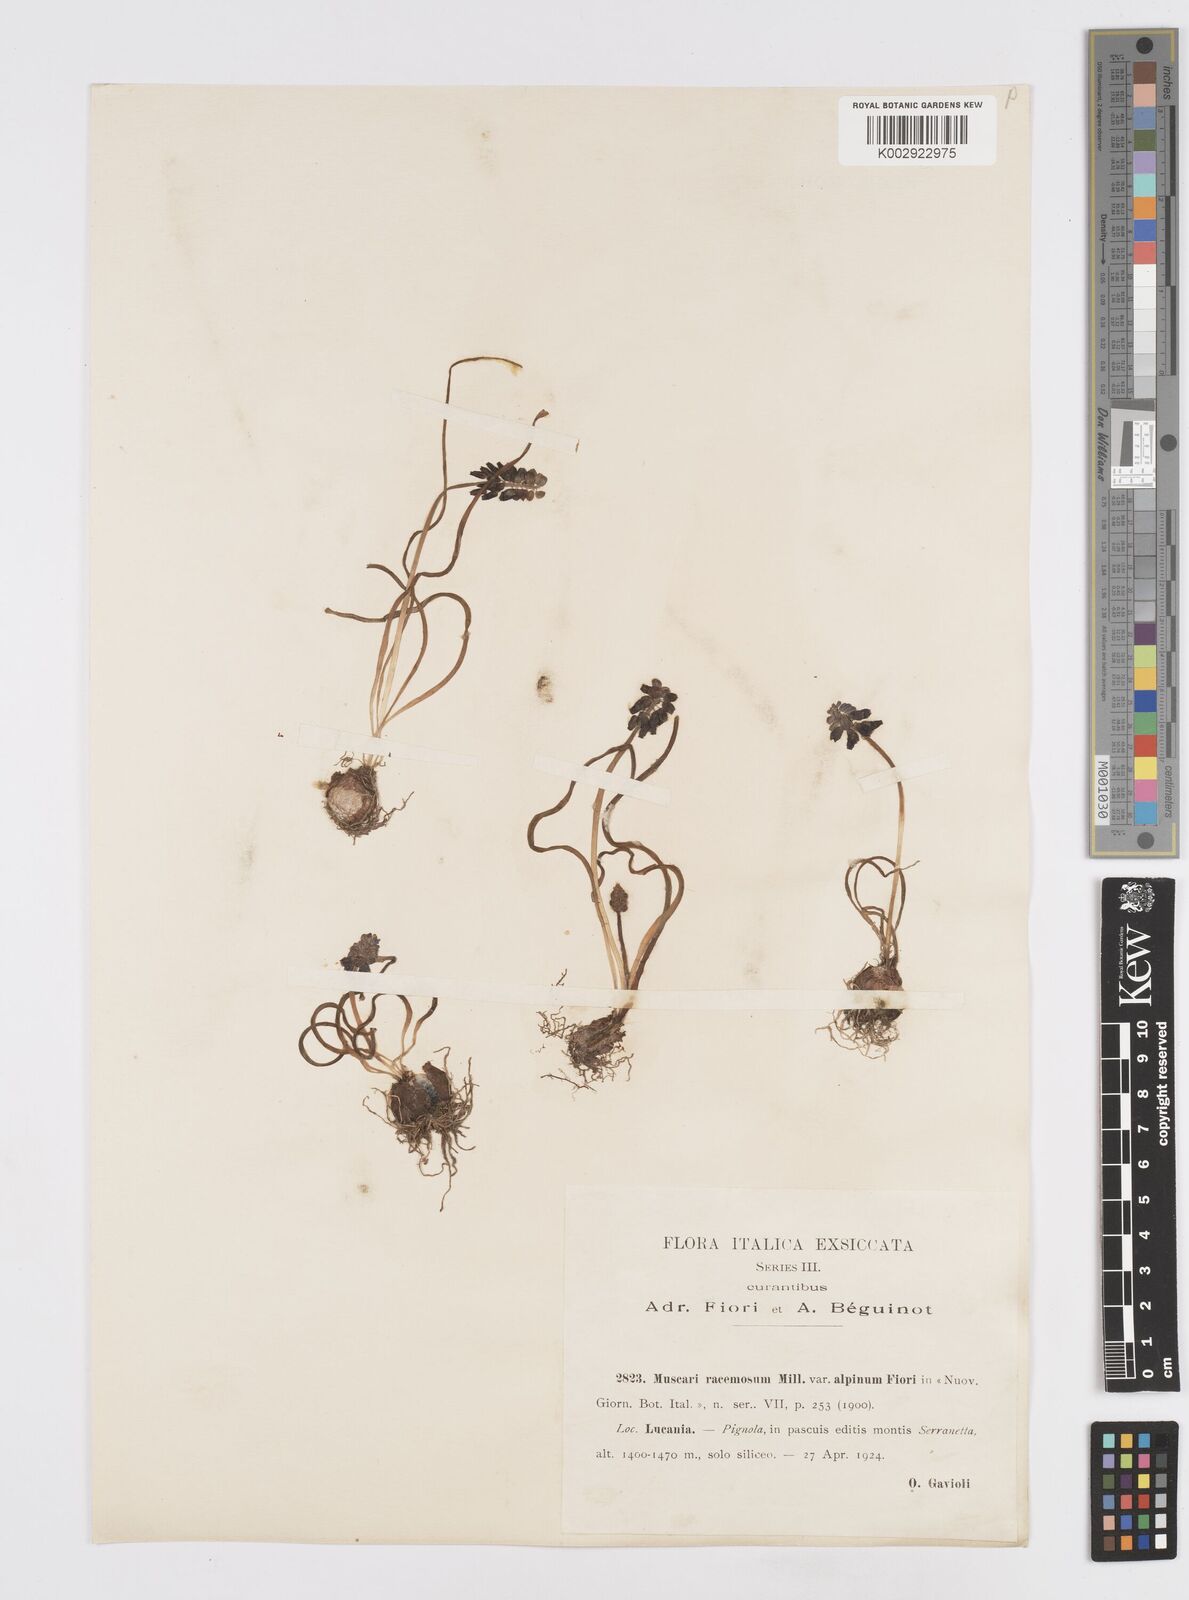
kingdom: Plantae
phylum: Tracheophyta
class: Liliopsida
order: Asparagales
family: Asparagaceae
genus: Muscarimia
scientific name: Muscarimia muscari
